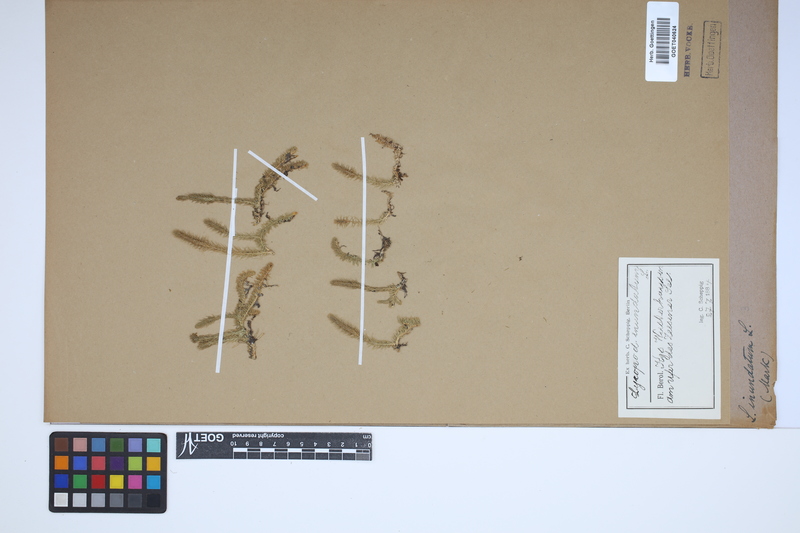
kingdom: Plantae
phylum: Tracheophyta
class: Lycopodiopsida
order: Lycopodiales
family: Lycopodiaceae
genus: Lycopodiella
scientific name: Lycopodiella inundata
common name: Marsh clubmoss
